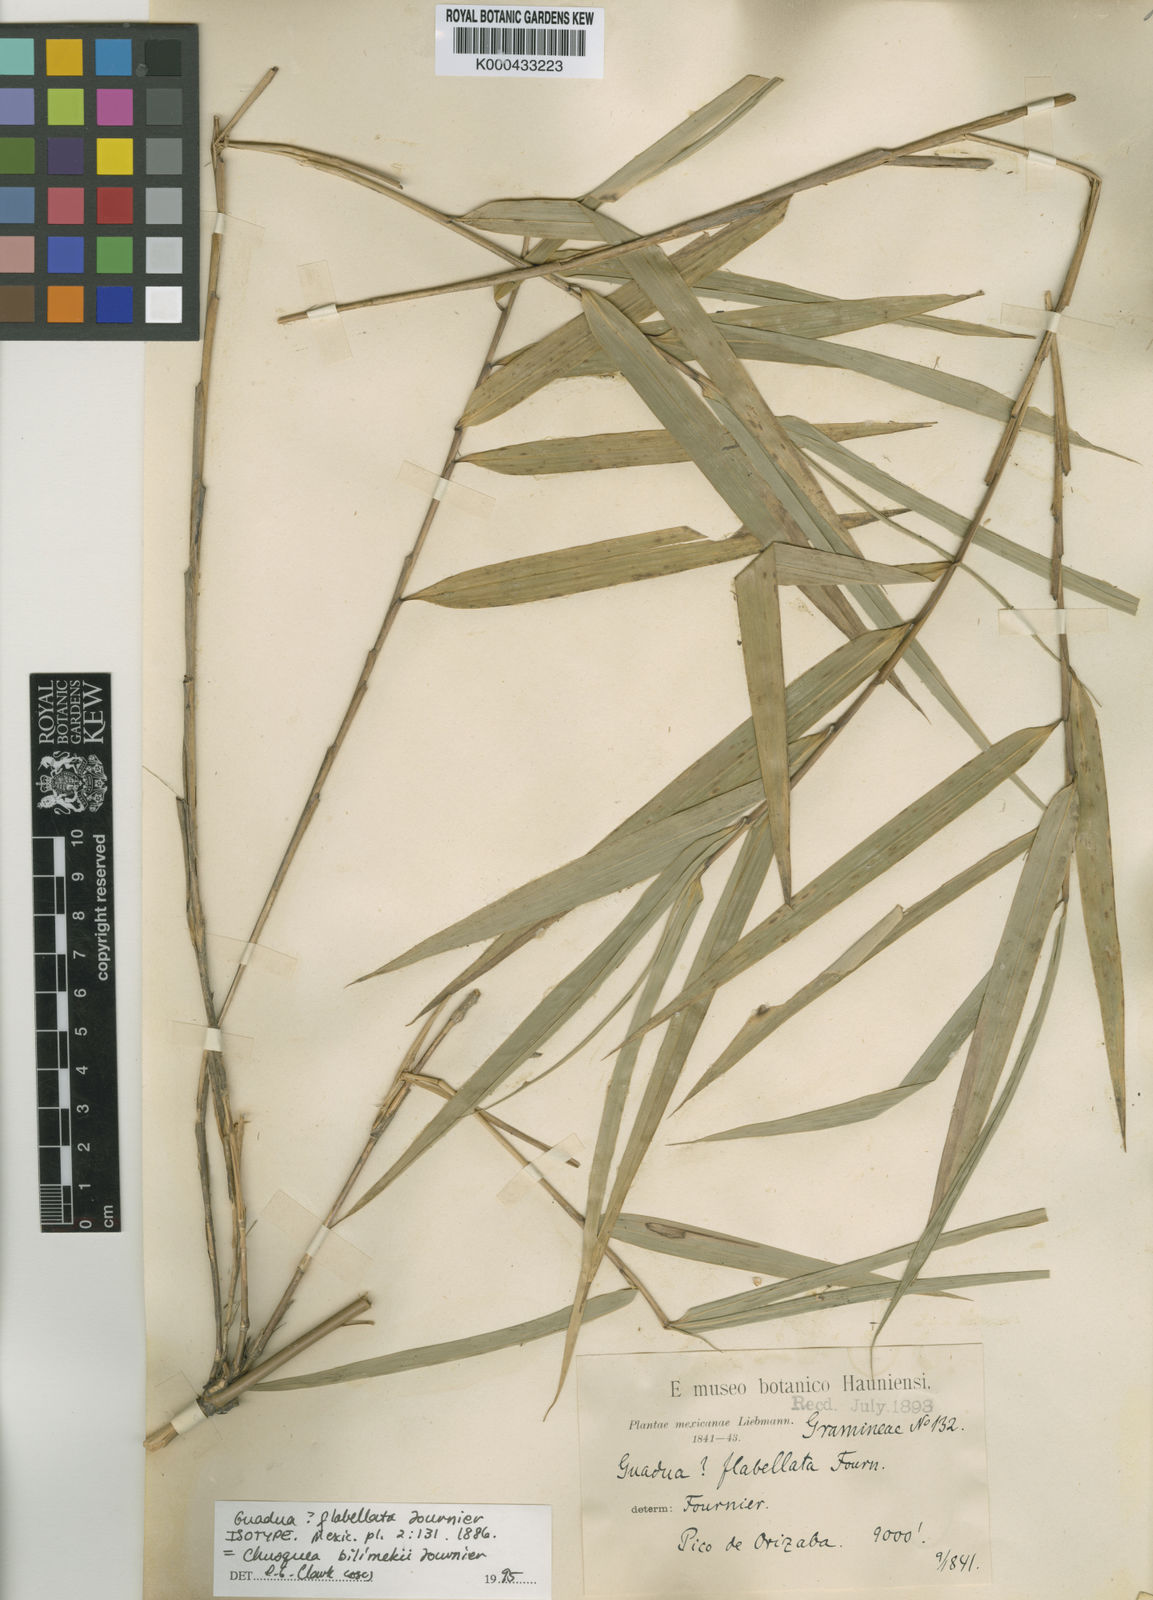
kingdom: Plantae
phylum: Tracheophyta
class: Liliopsida
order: Poales
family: Poaceae
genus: Chusquea
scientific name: Chusquea bilimekii
